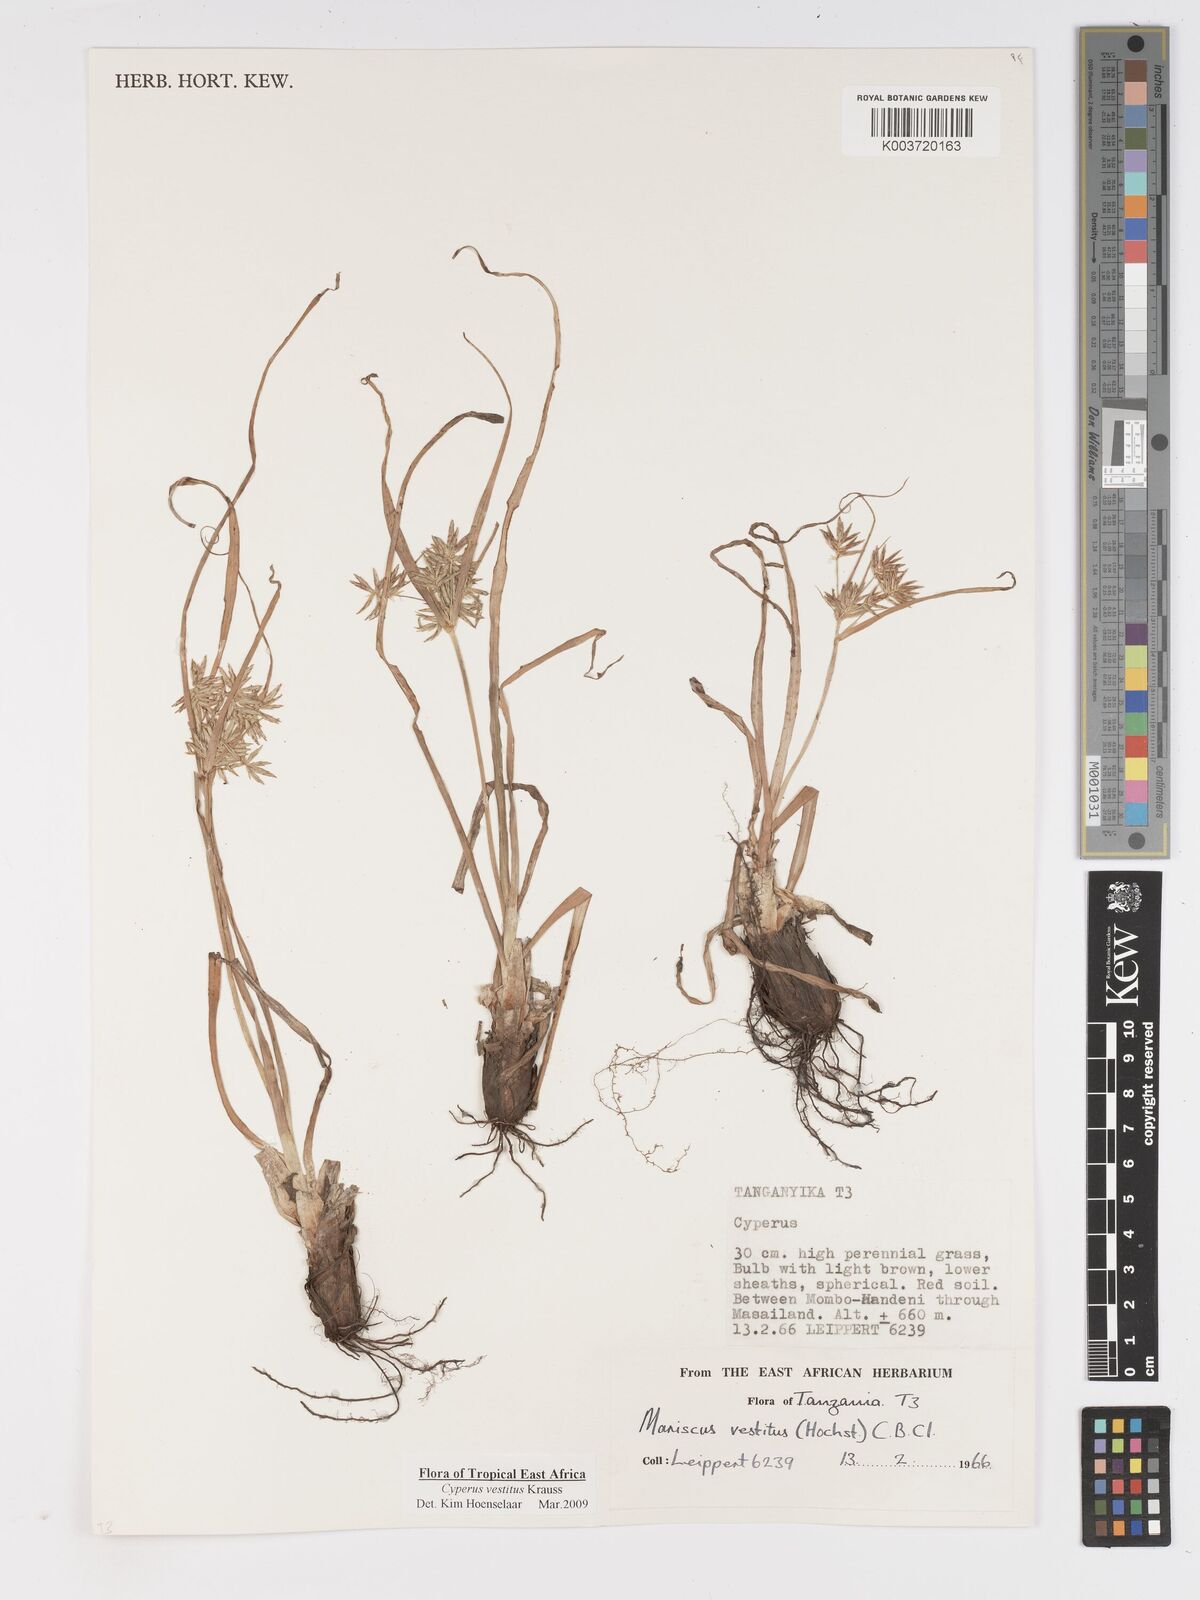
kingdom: Plantae
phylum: Tracheophyta
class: Liliopsida
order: Poales
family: Cyperaceae
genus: Cyperus
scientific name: Cyperus vestitus
